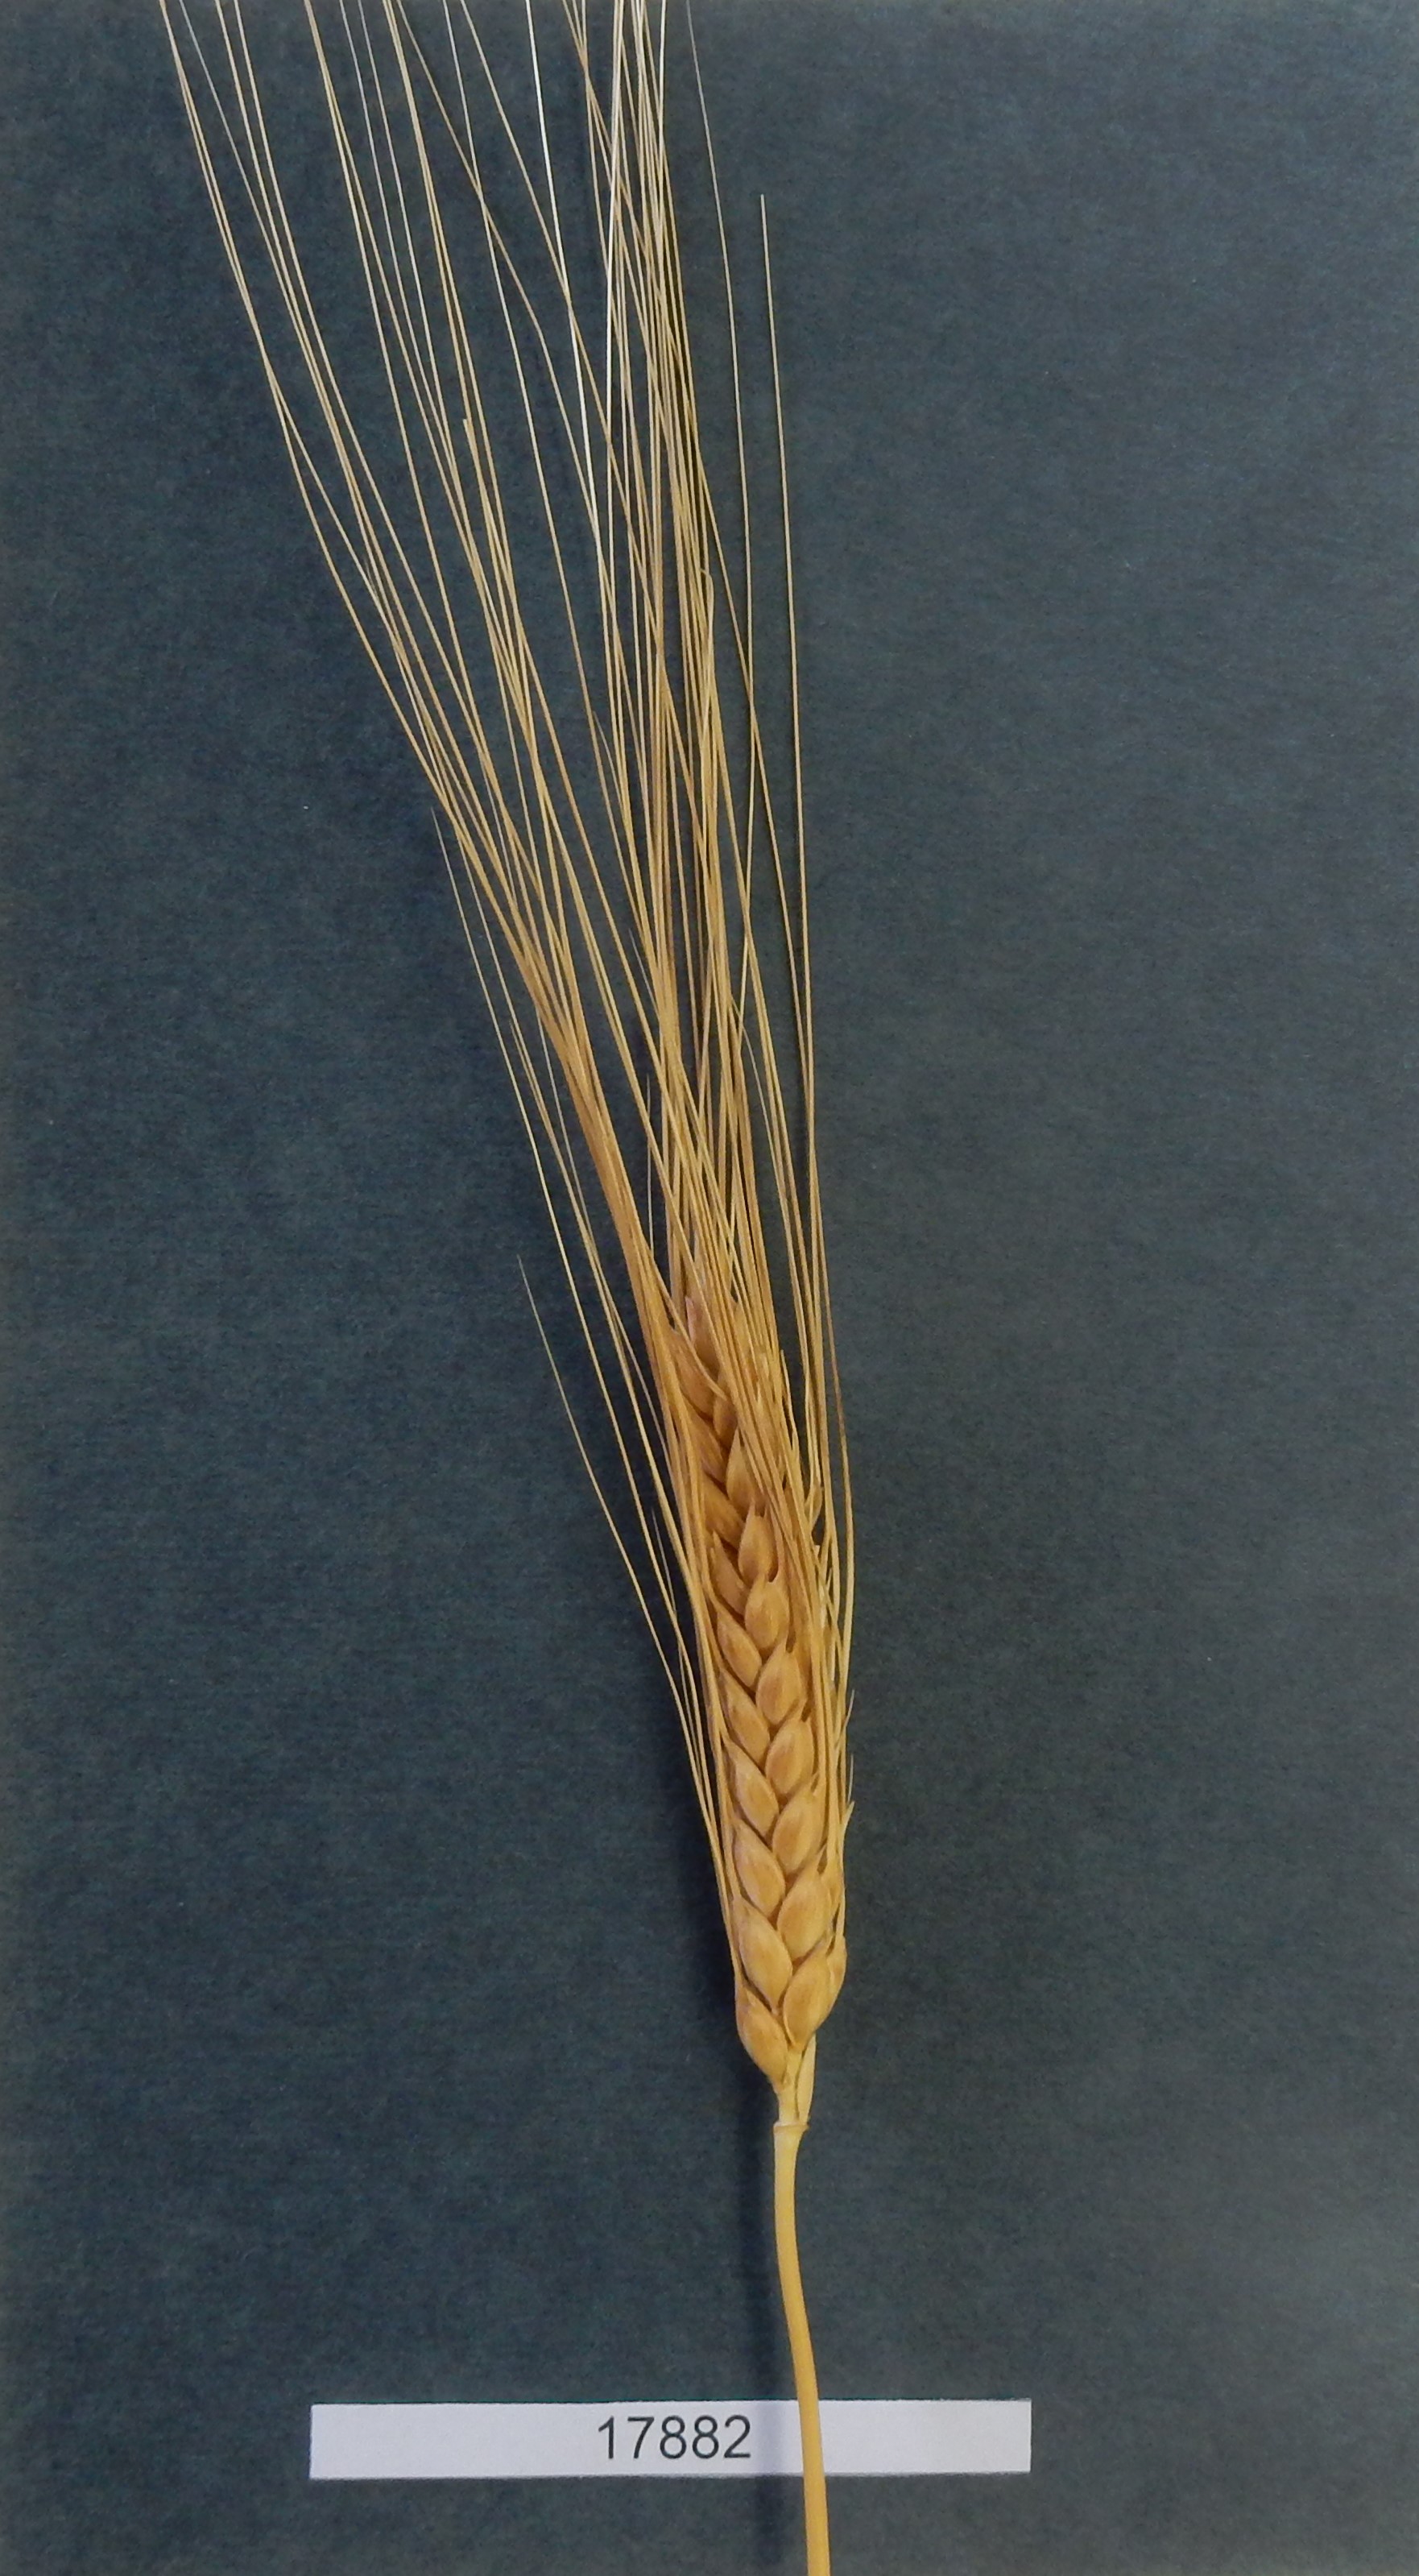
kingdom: Plantae
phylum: Tracheophyta
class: Liliopsida
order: Poales
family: Poaceae
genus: Triticum
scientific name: Triticum turgidum
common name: Wheat
